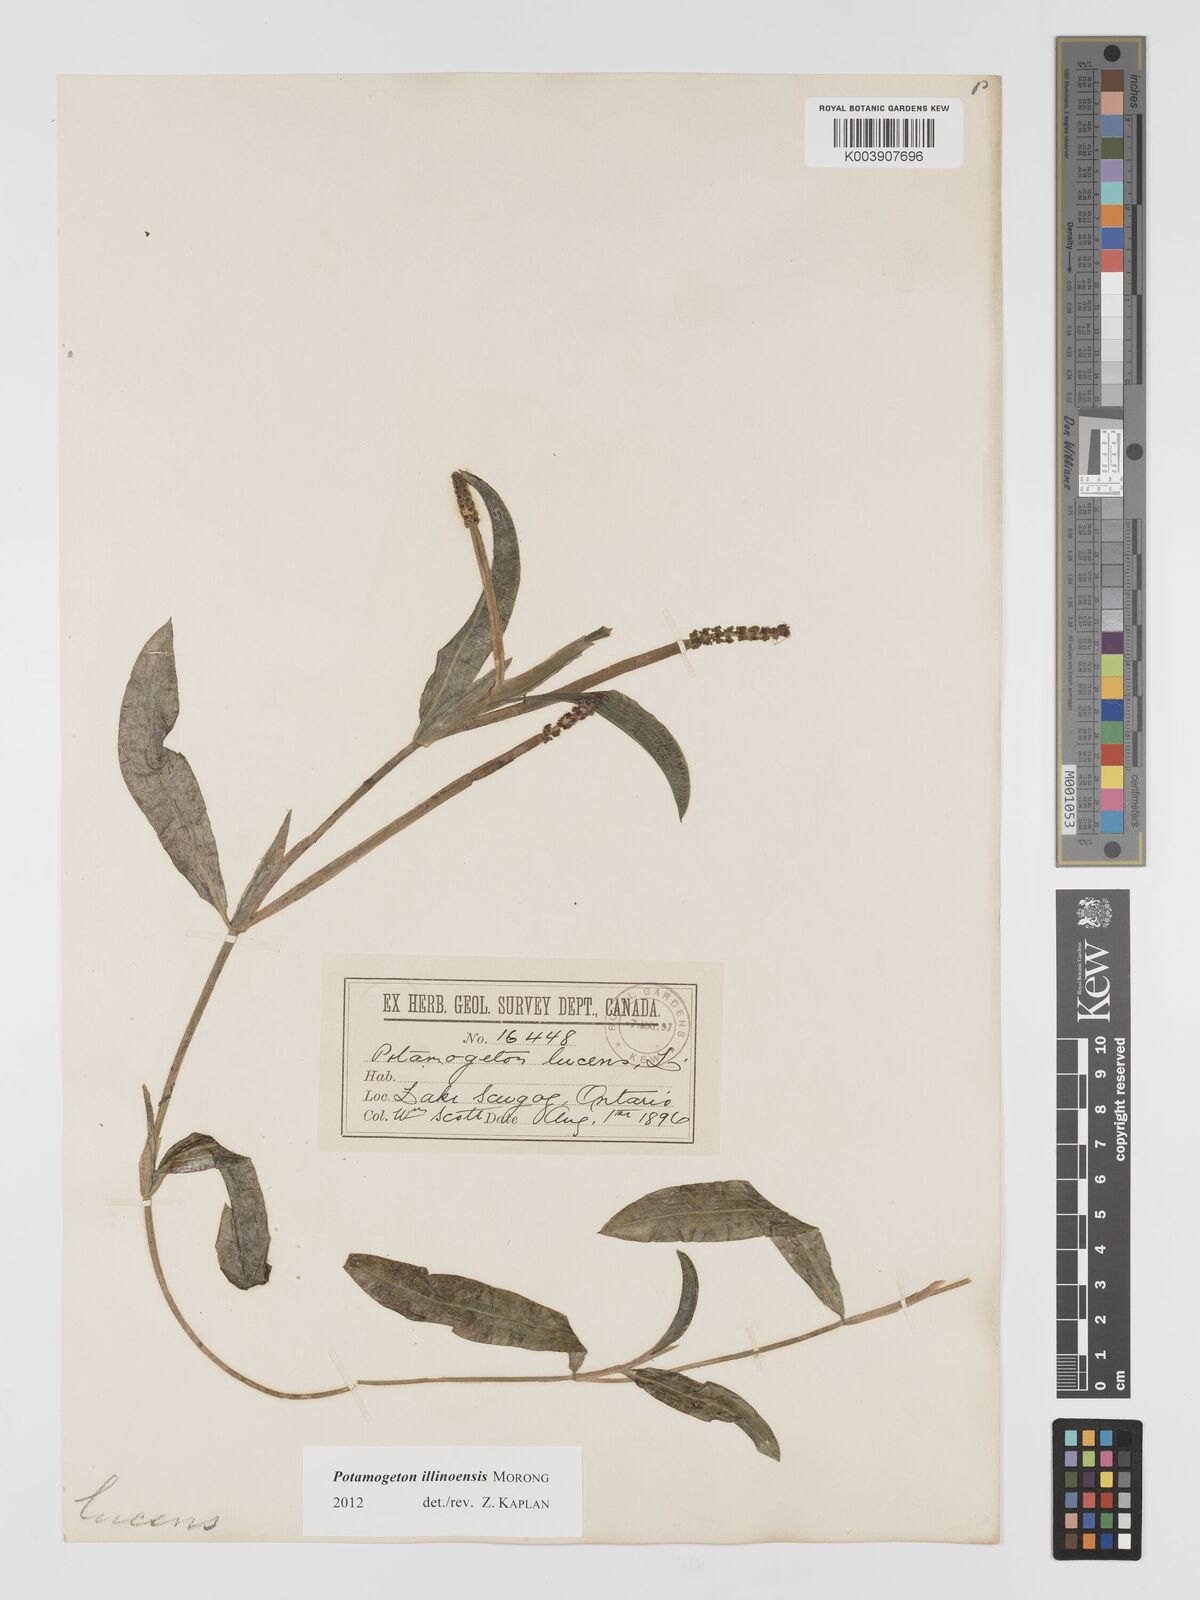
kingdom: Plantae
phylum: Tracheophyta
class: Liliopsida
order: Alismatales
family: Potamogetonaceae
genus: Potamogeton
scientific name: Potamogeton lucens
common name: Shining pondweed
